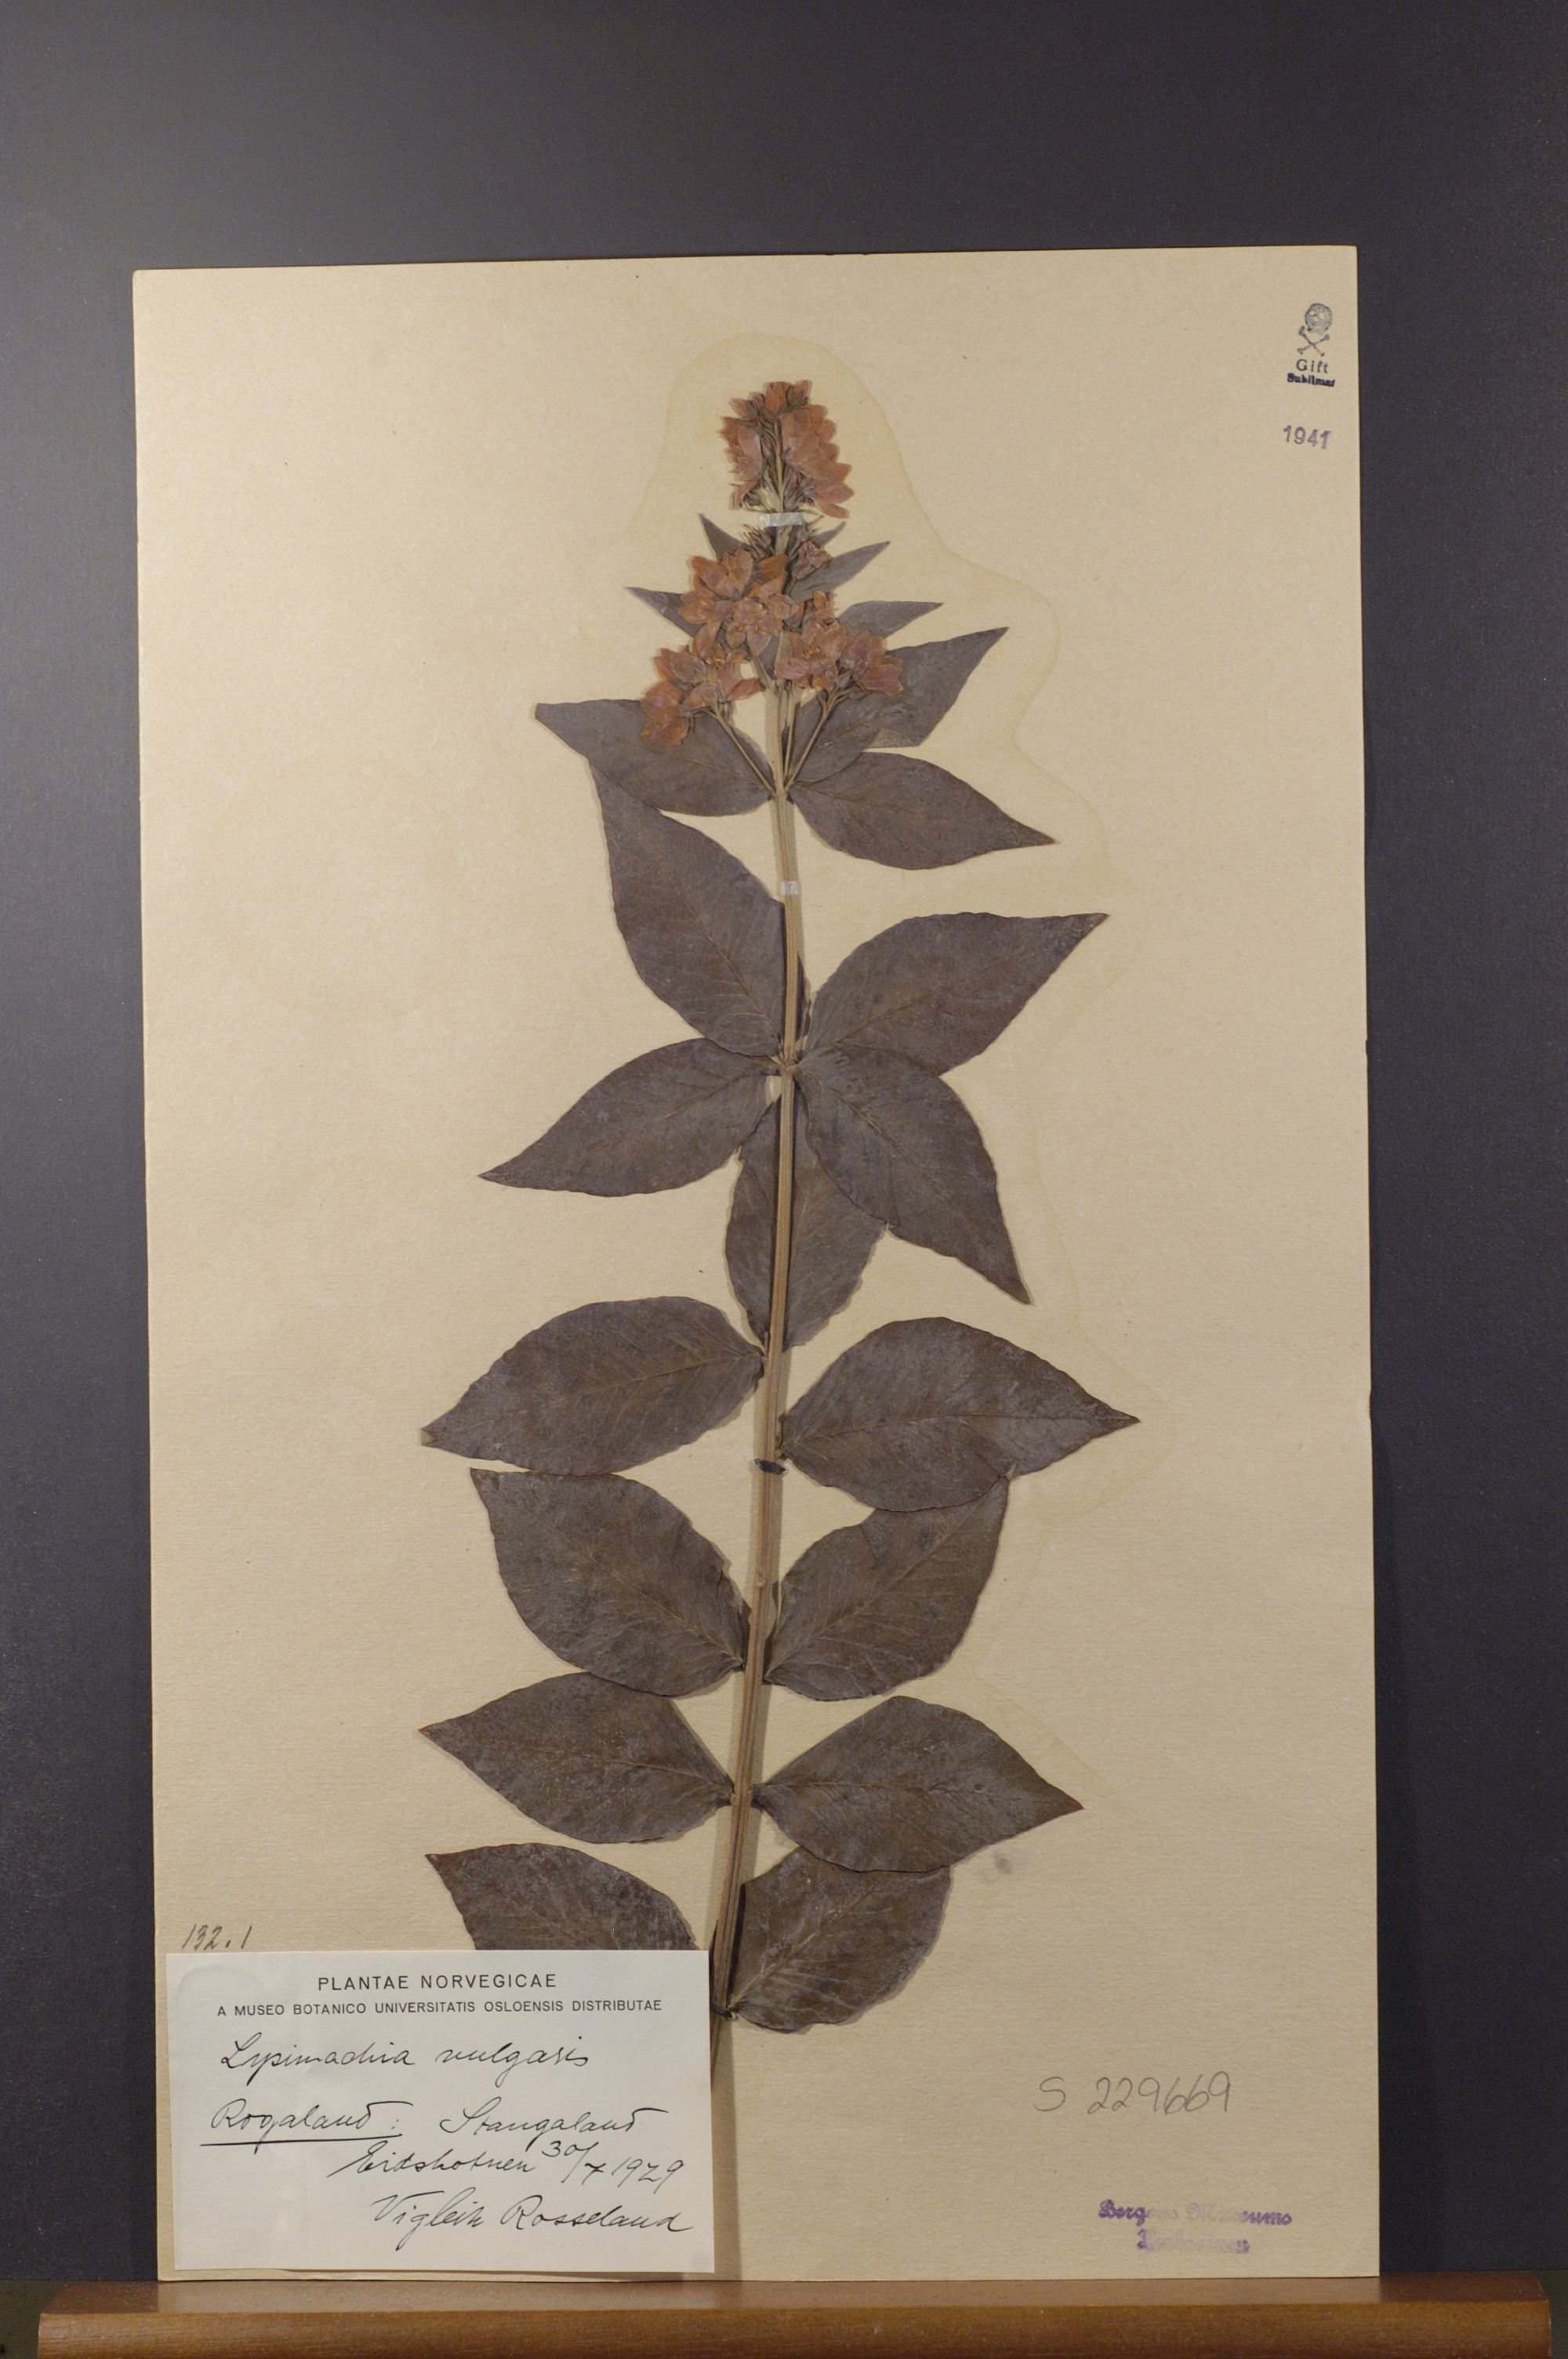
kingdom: Plantae
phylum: Tracheophyta
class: Magnoliopsida
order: Ericales
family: Primulaceae
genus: Lysimachia
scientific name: Lysimachia vulgaris
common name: Yellow loosestrife
